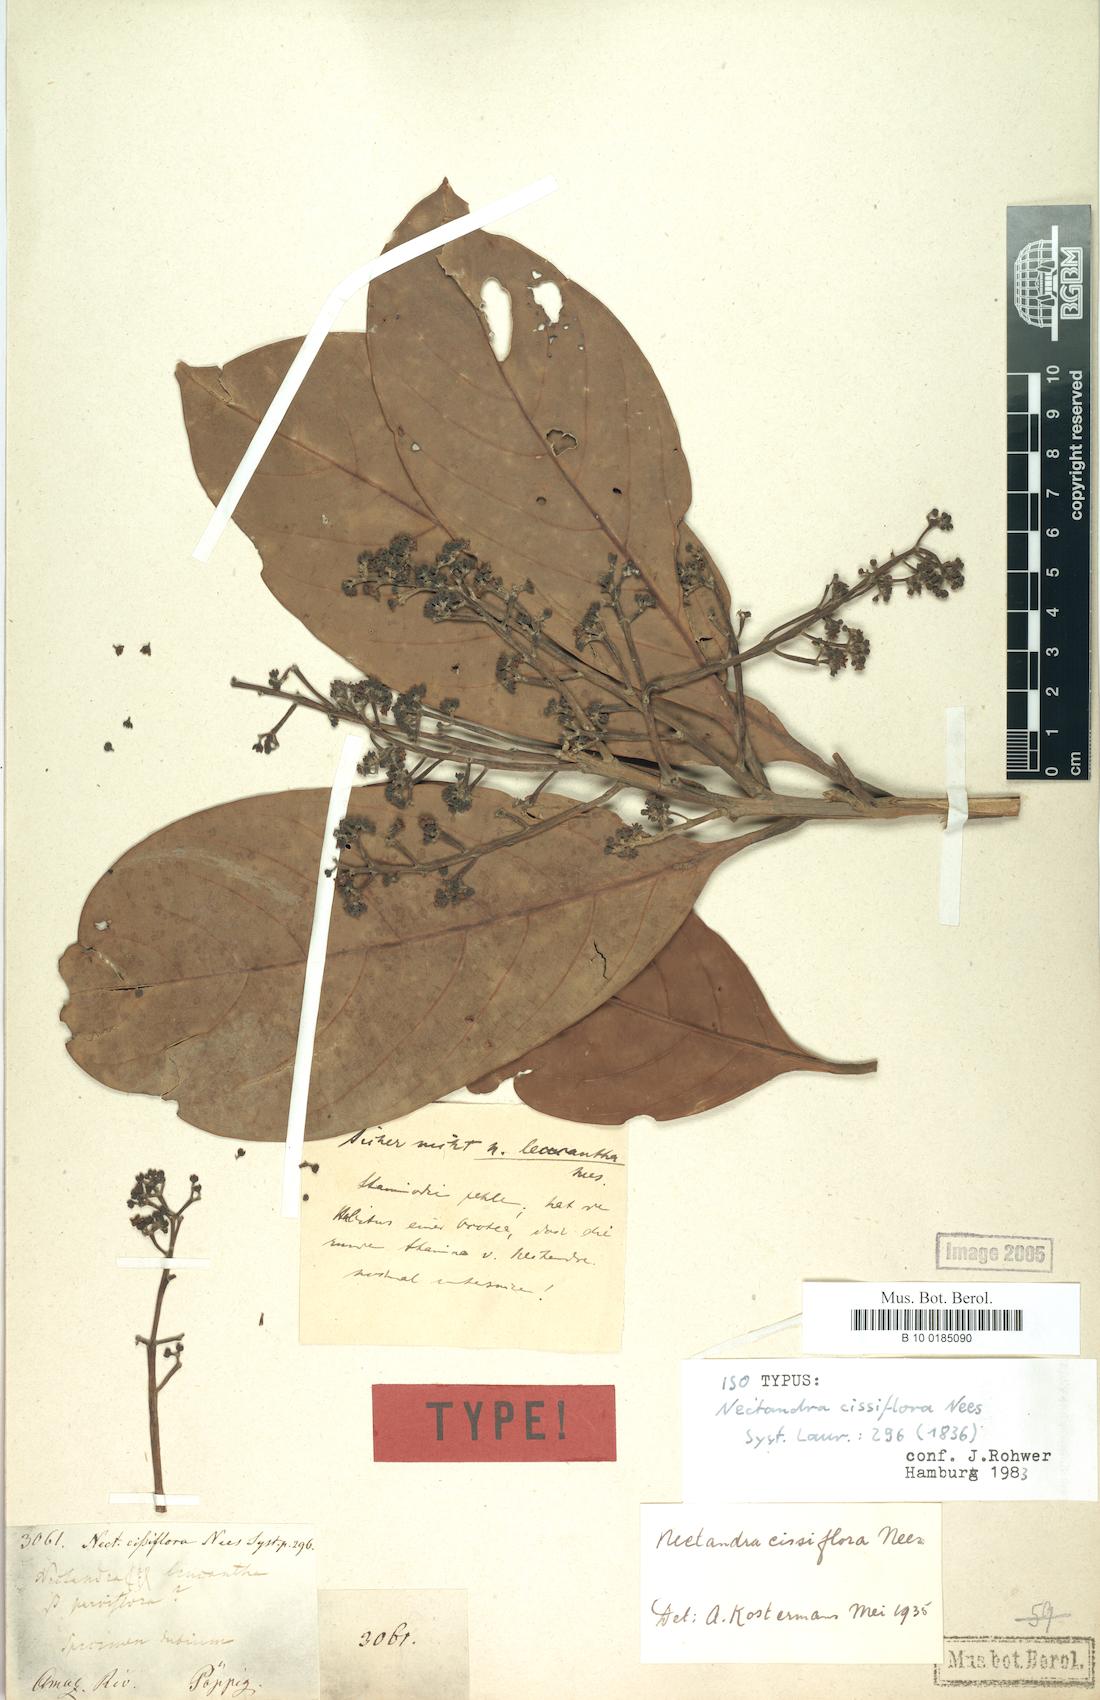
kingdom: Plantae
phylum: Tracheophyta
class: Magnoliopsida
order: Laurales
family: Lauraceae
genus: Nectandra
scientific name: Nectandra cissiflora
